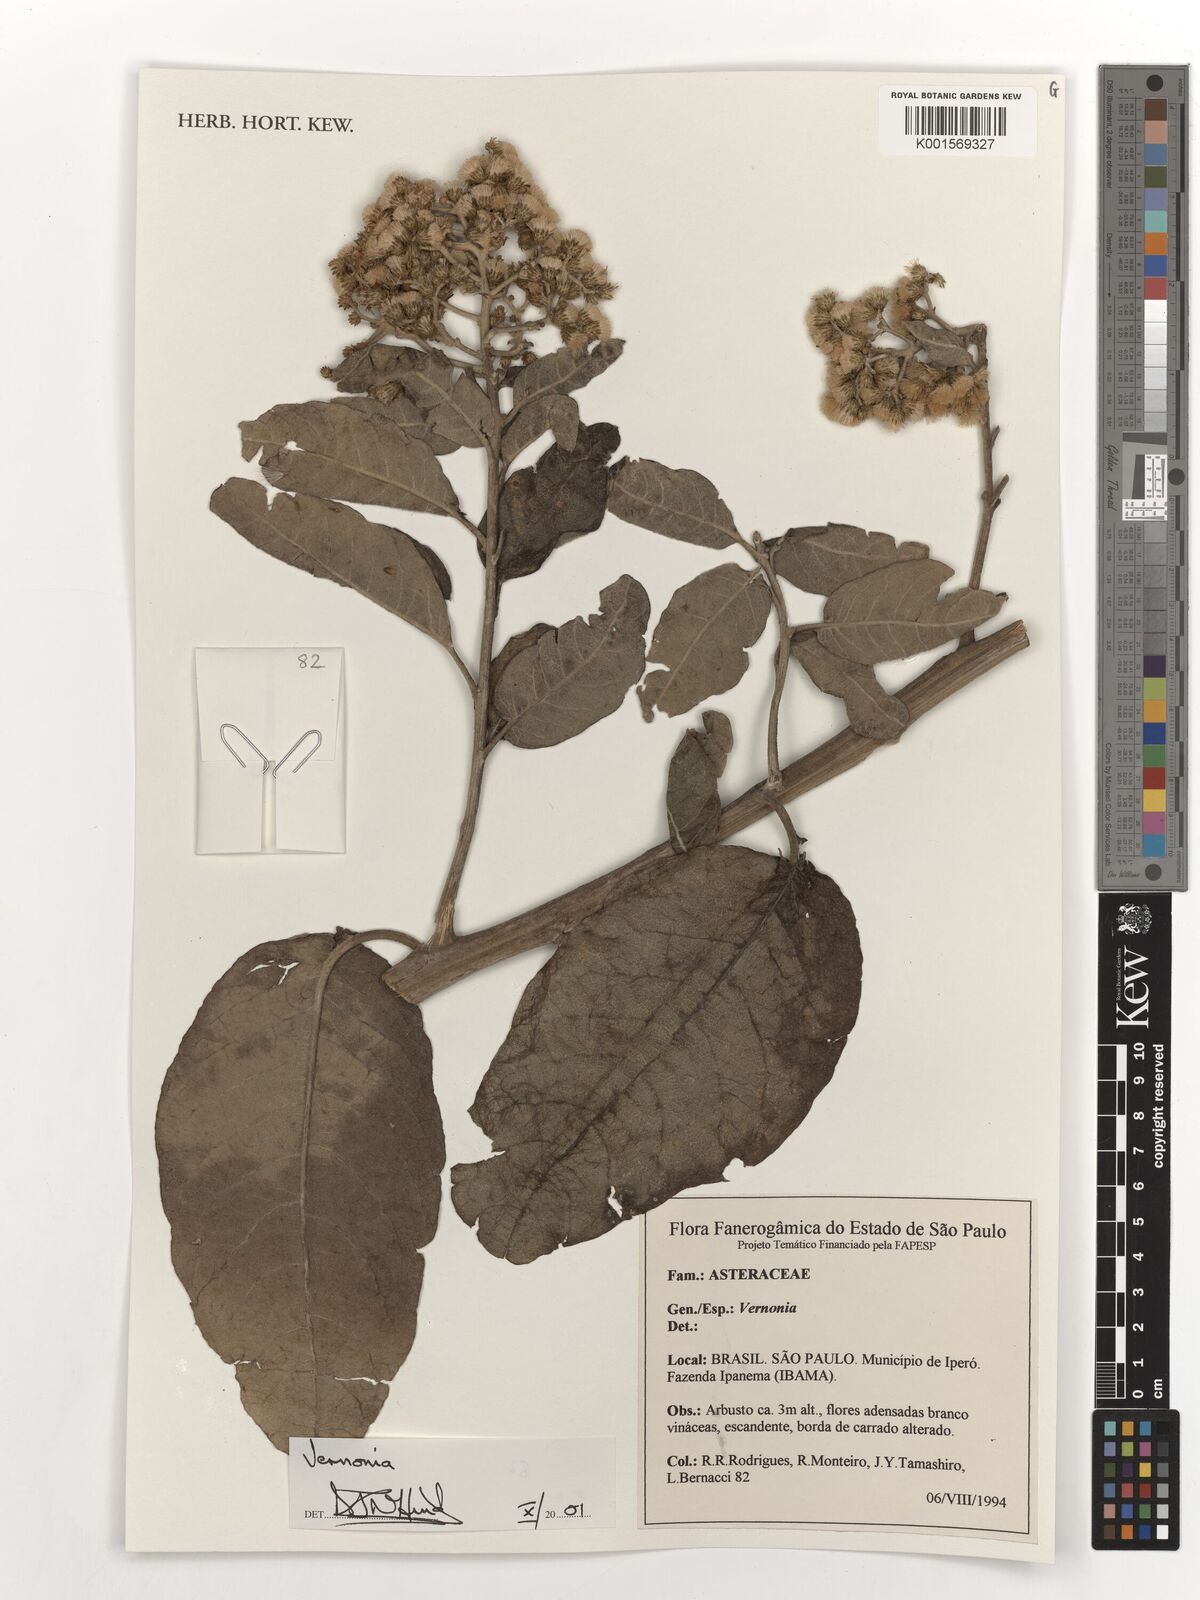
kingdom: Plantae
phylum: Tracheophyta
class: Magnoliopsida
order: Asterales
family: Asteraceae
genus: Vernonia
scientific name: Vernonia
